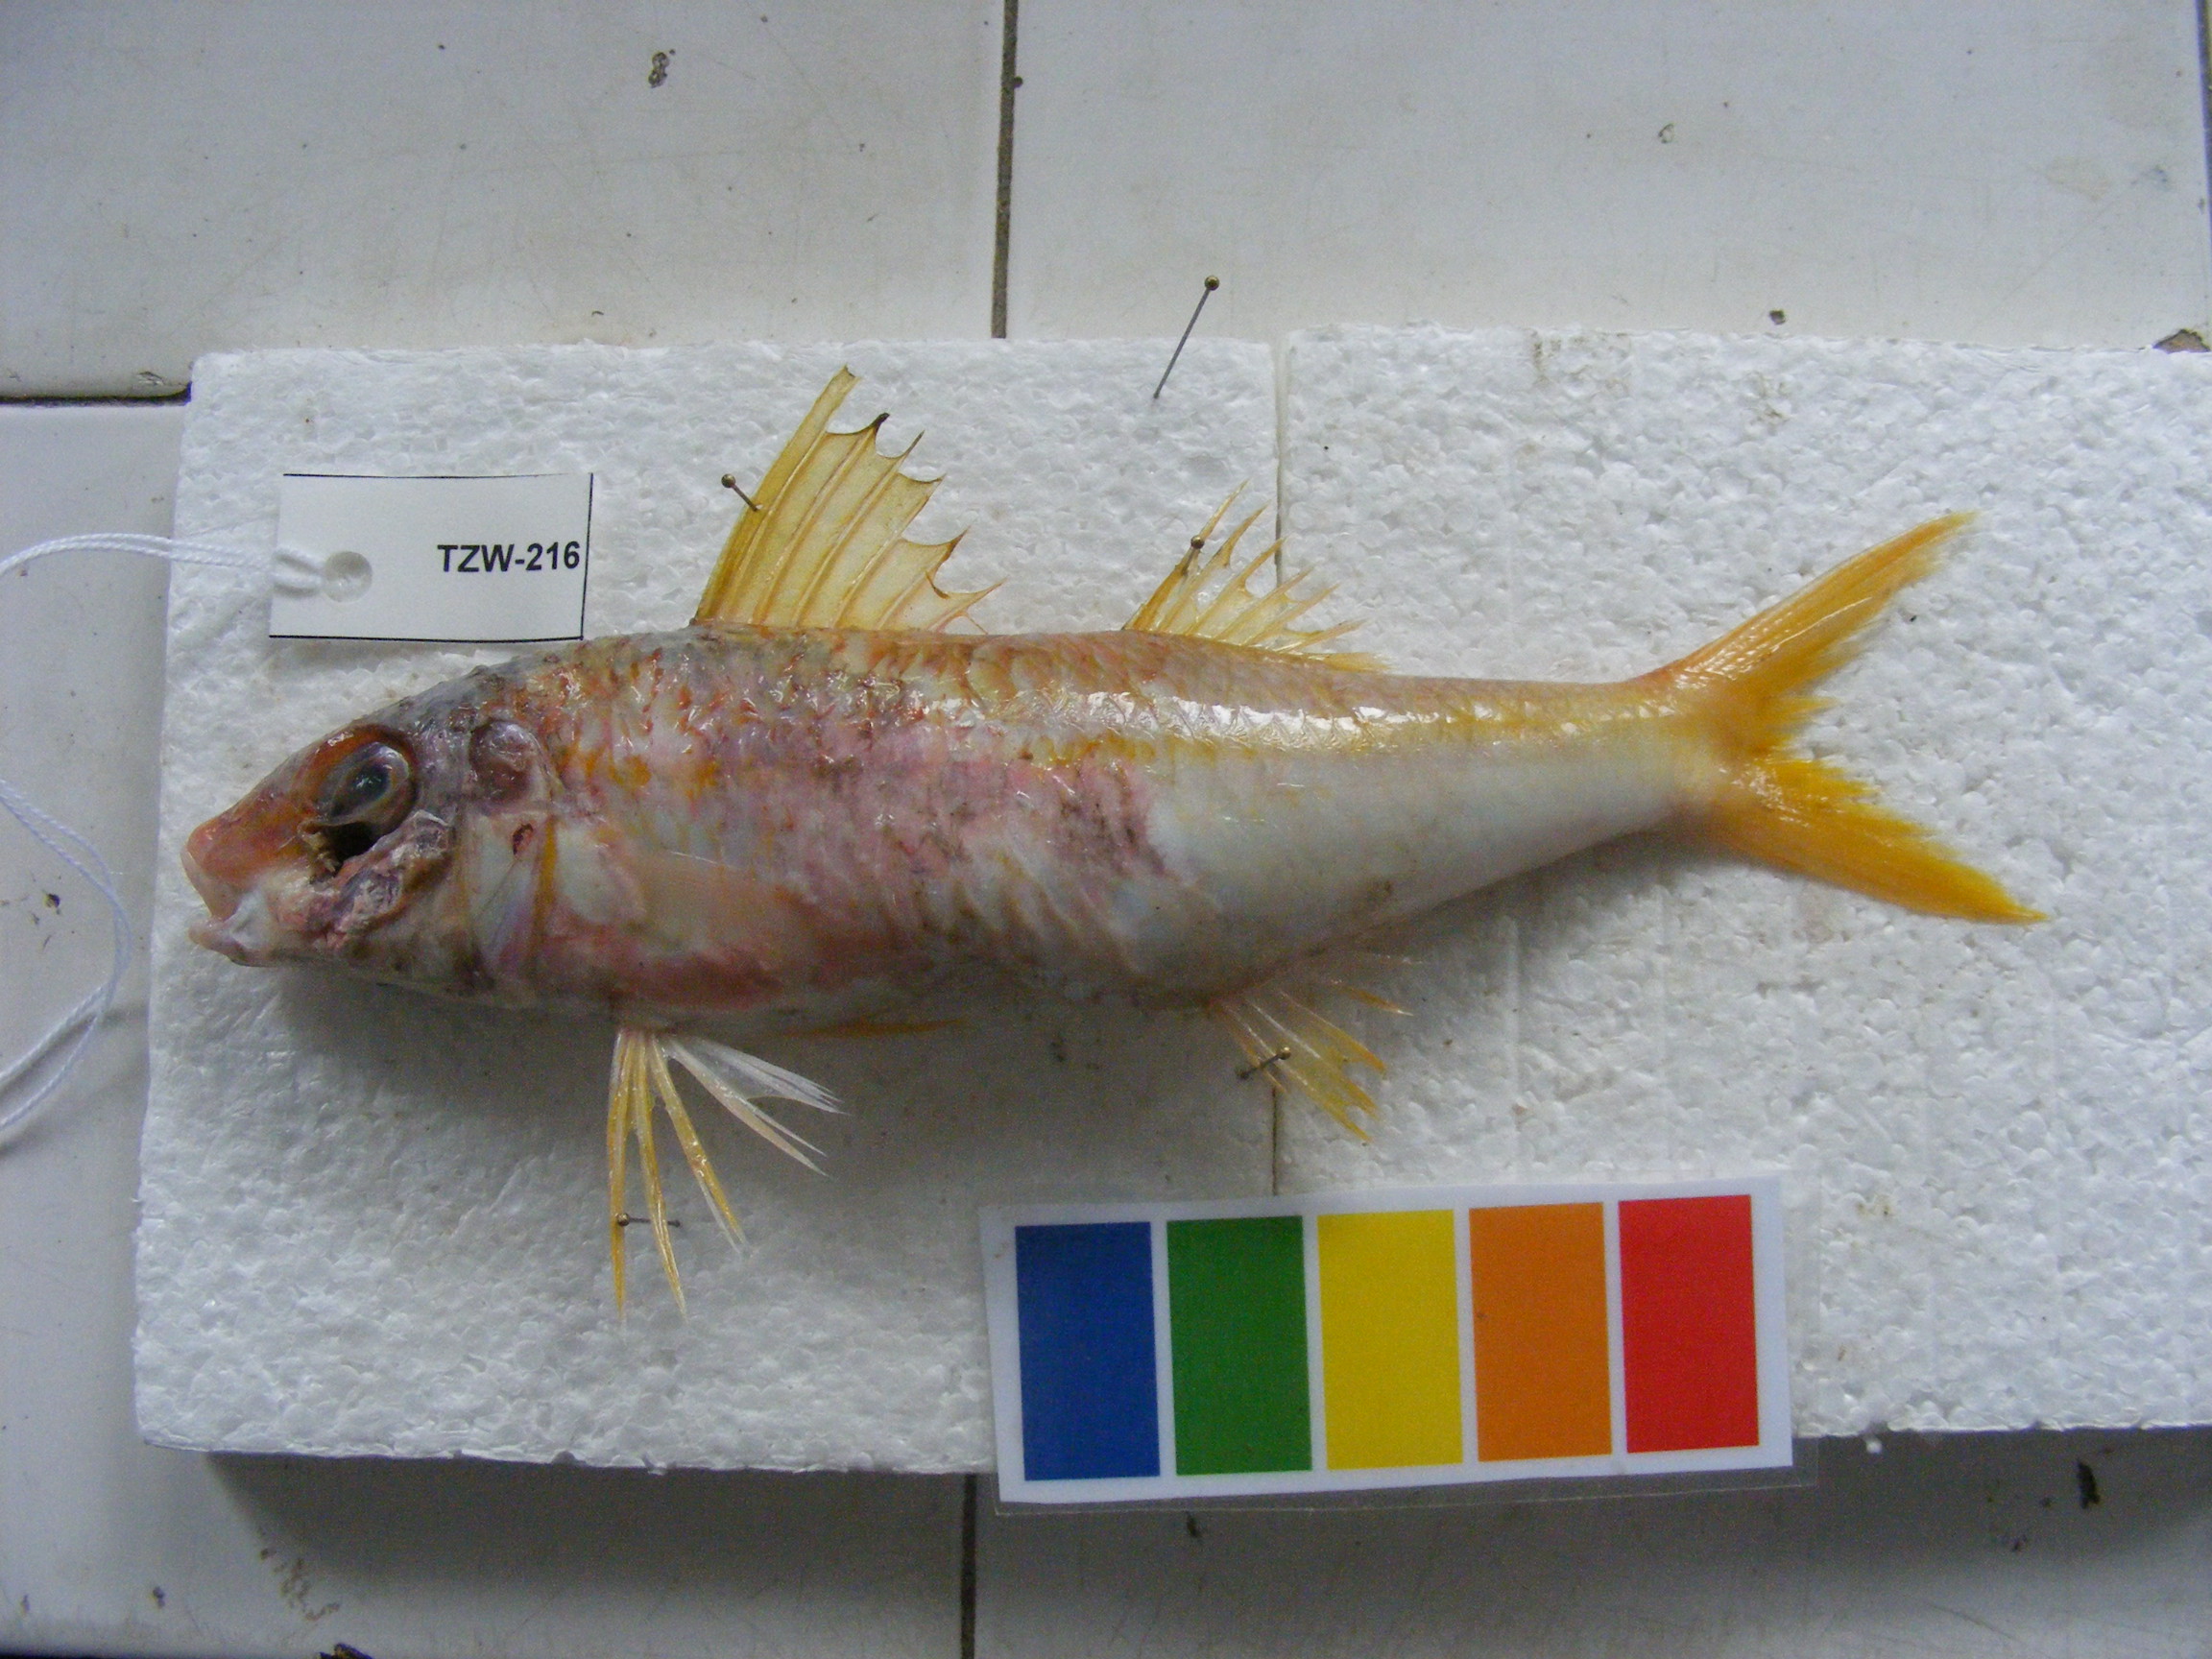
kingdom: Animalia
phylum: Chordata
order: Perciformes
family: Mullidae
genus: Mulloidichthys
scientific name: Mulloidichthys vanicolensis
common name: Yellowfin goatfish
